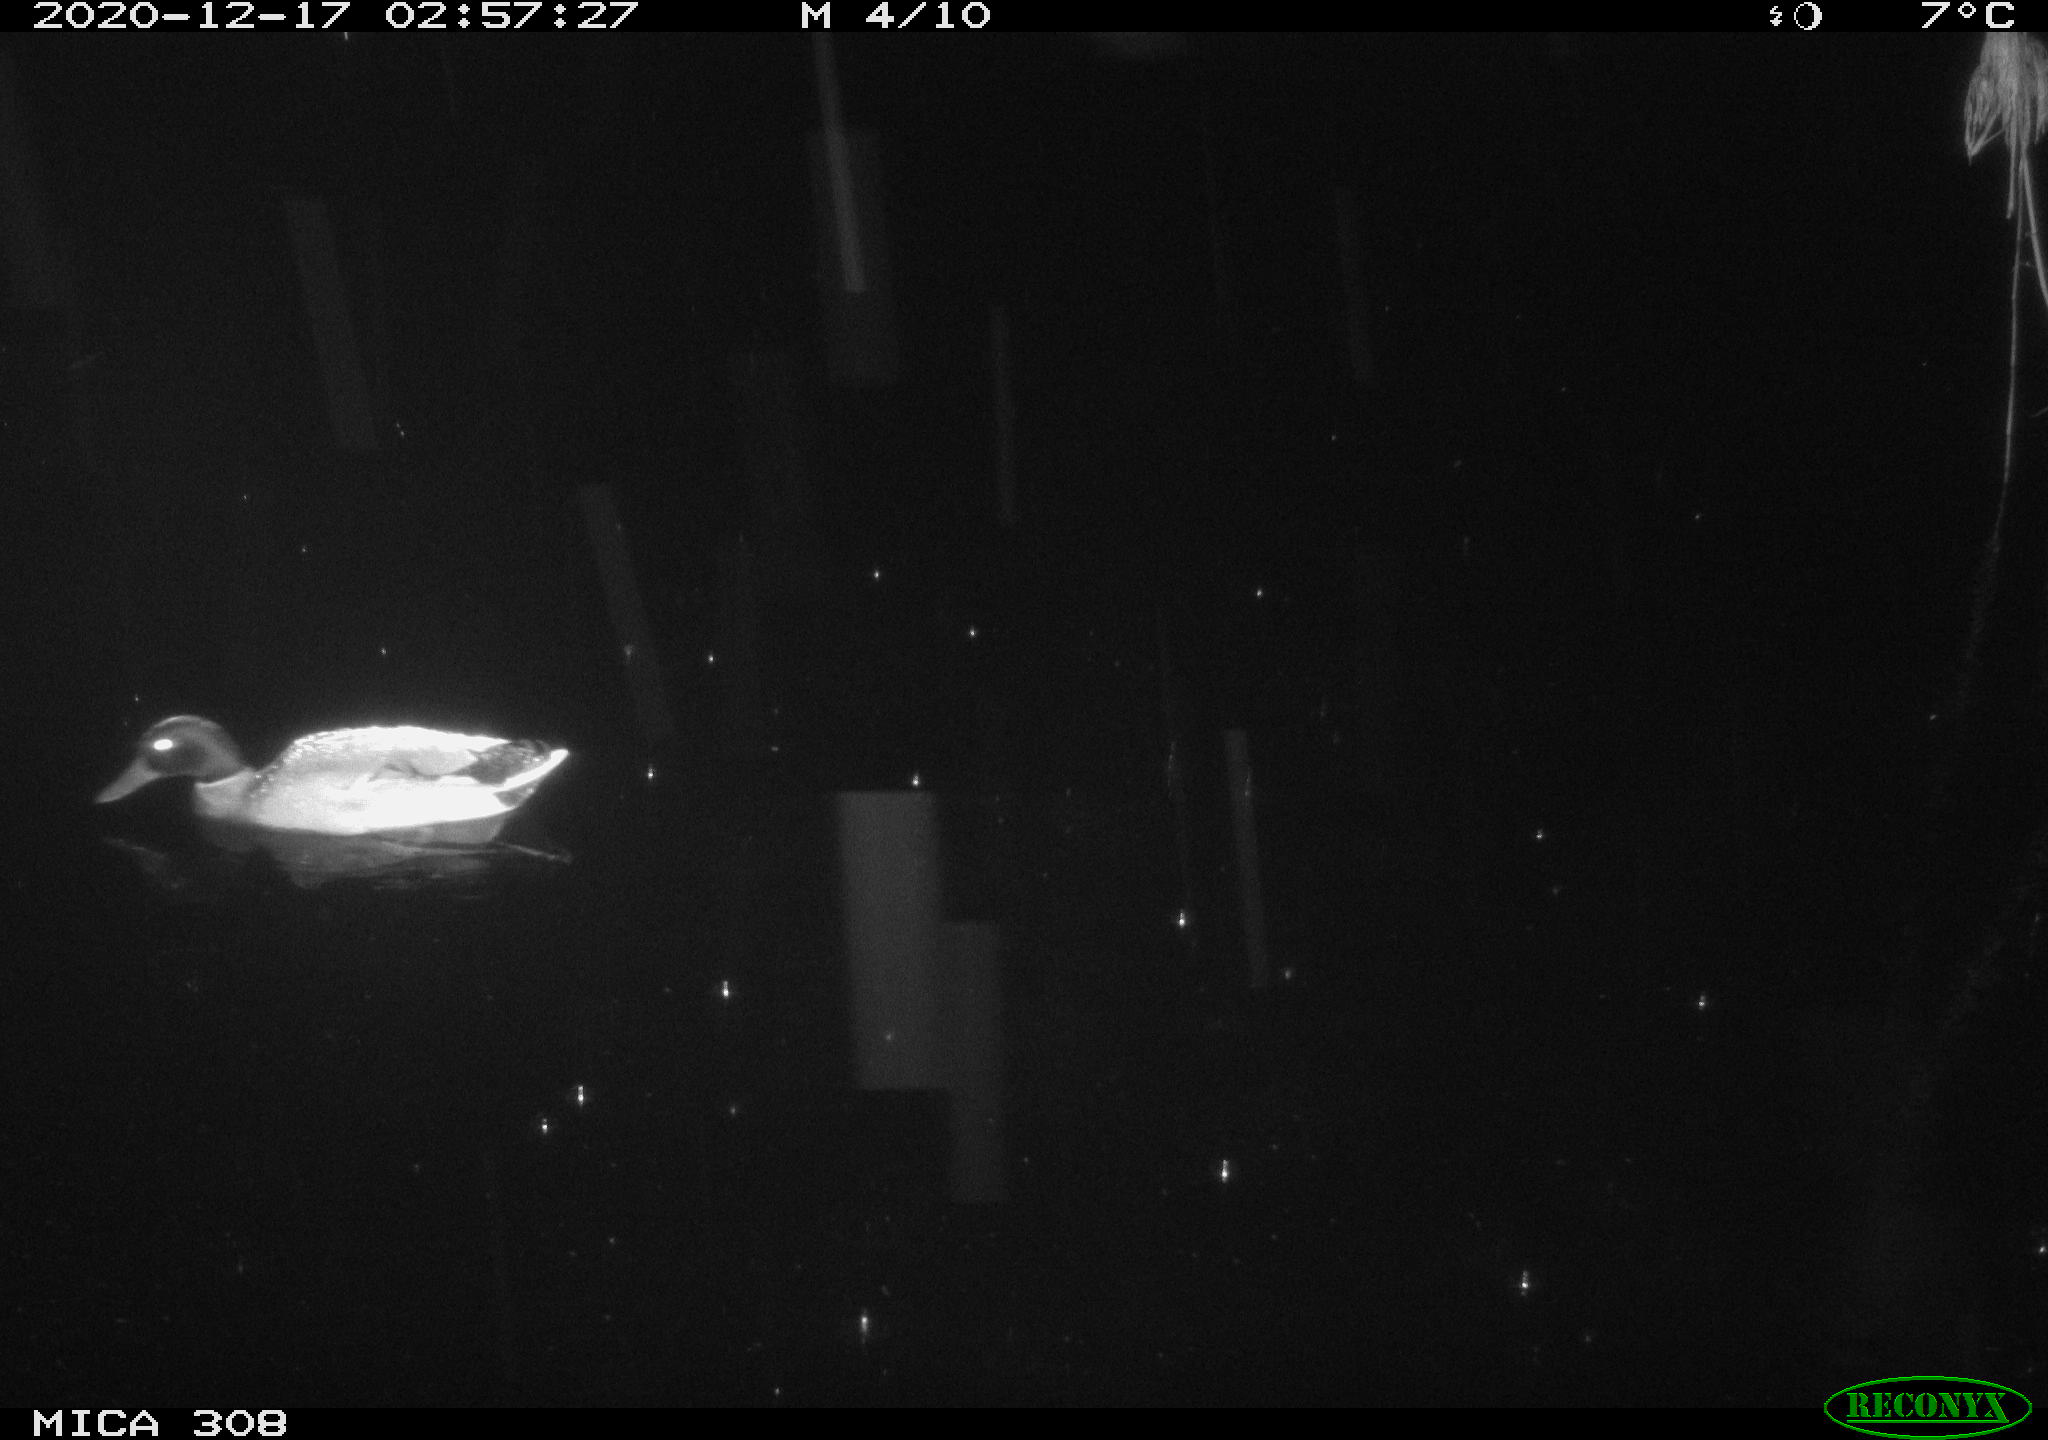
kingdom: Animalia
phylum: Chordata
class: Aves
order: Anseriformes
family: Anatidae
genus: Anas
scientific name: Anas platyrhynchos
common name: Mallard
